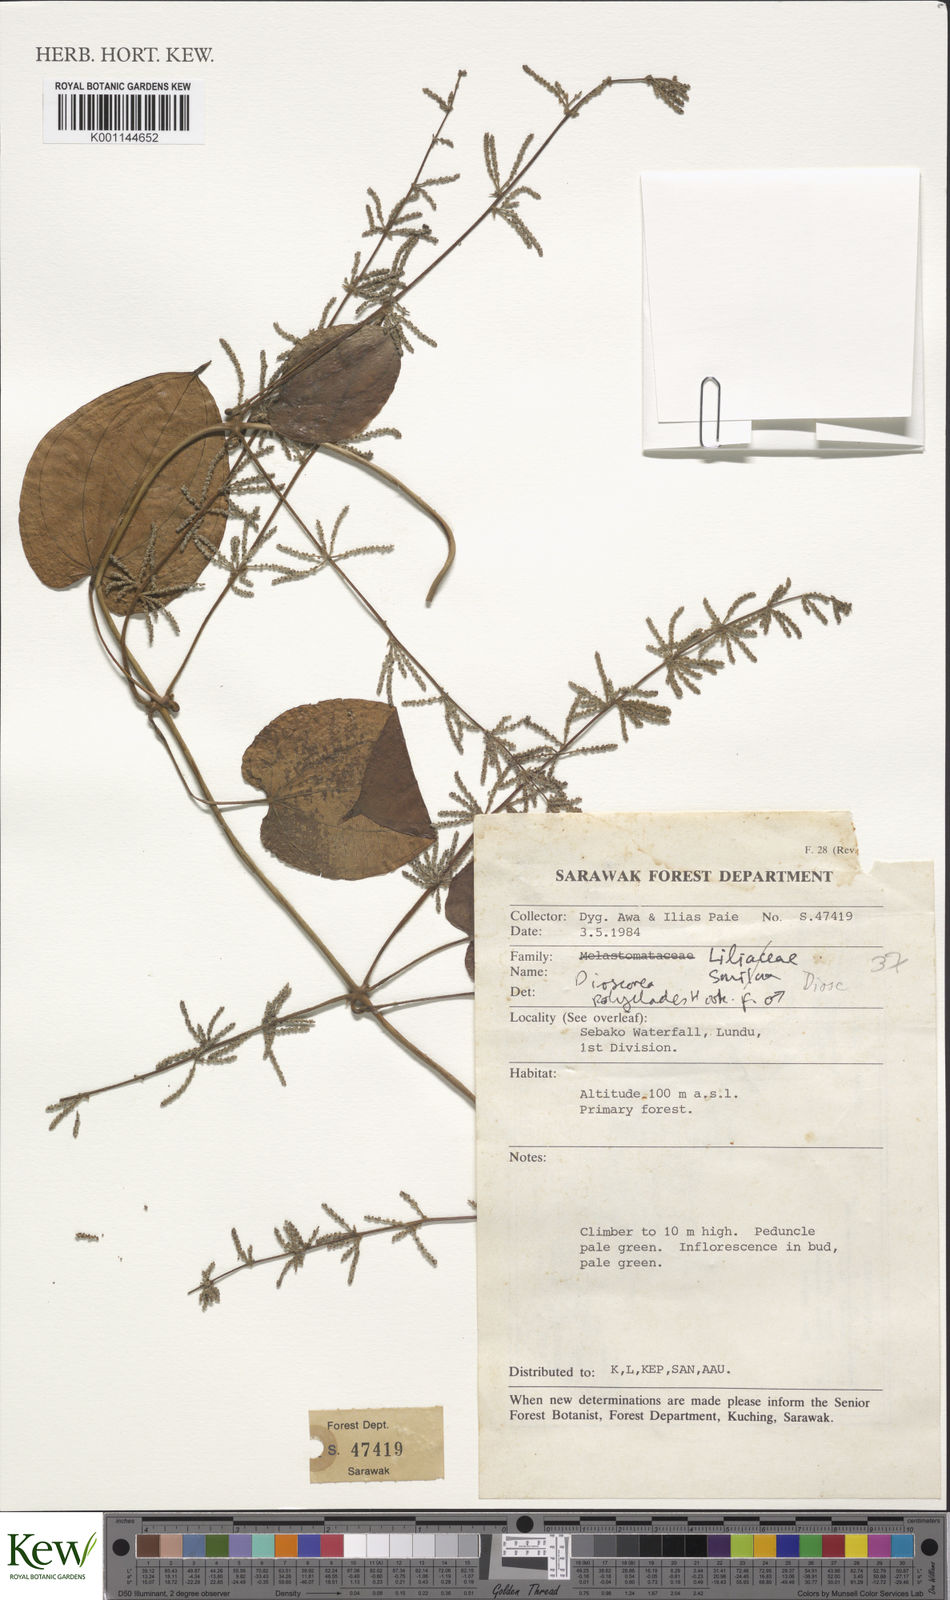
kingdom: Plantae
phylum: Tracheophyta
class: Liliopsida
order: Dioscoreales
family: Dioscoreaceae
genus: Dioscorea
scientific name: Dioscorea polyclados
